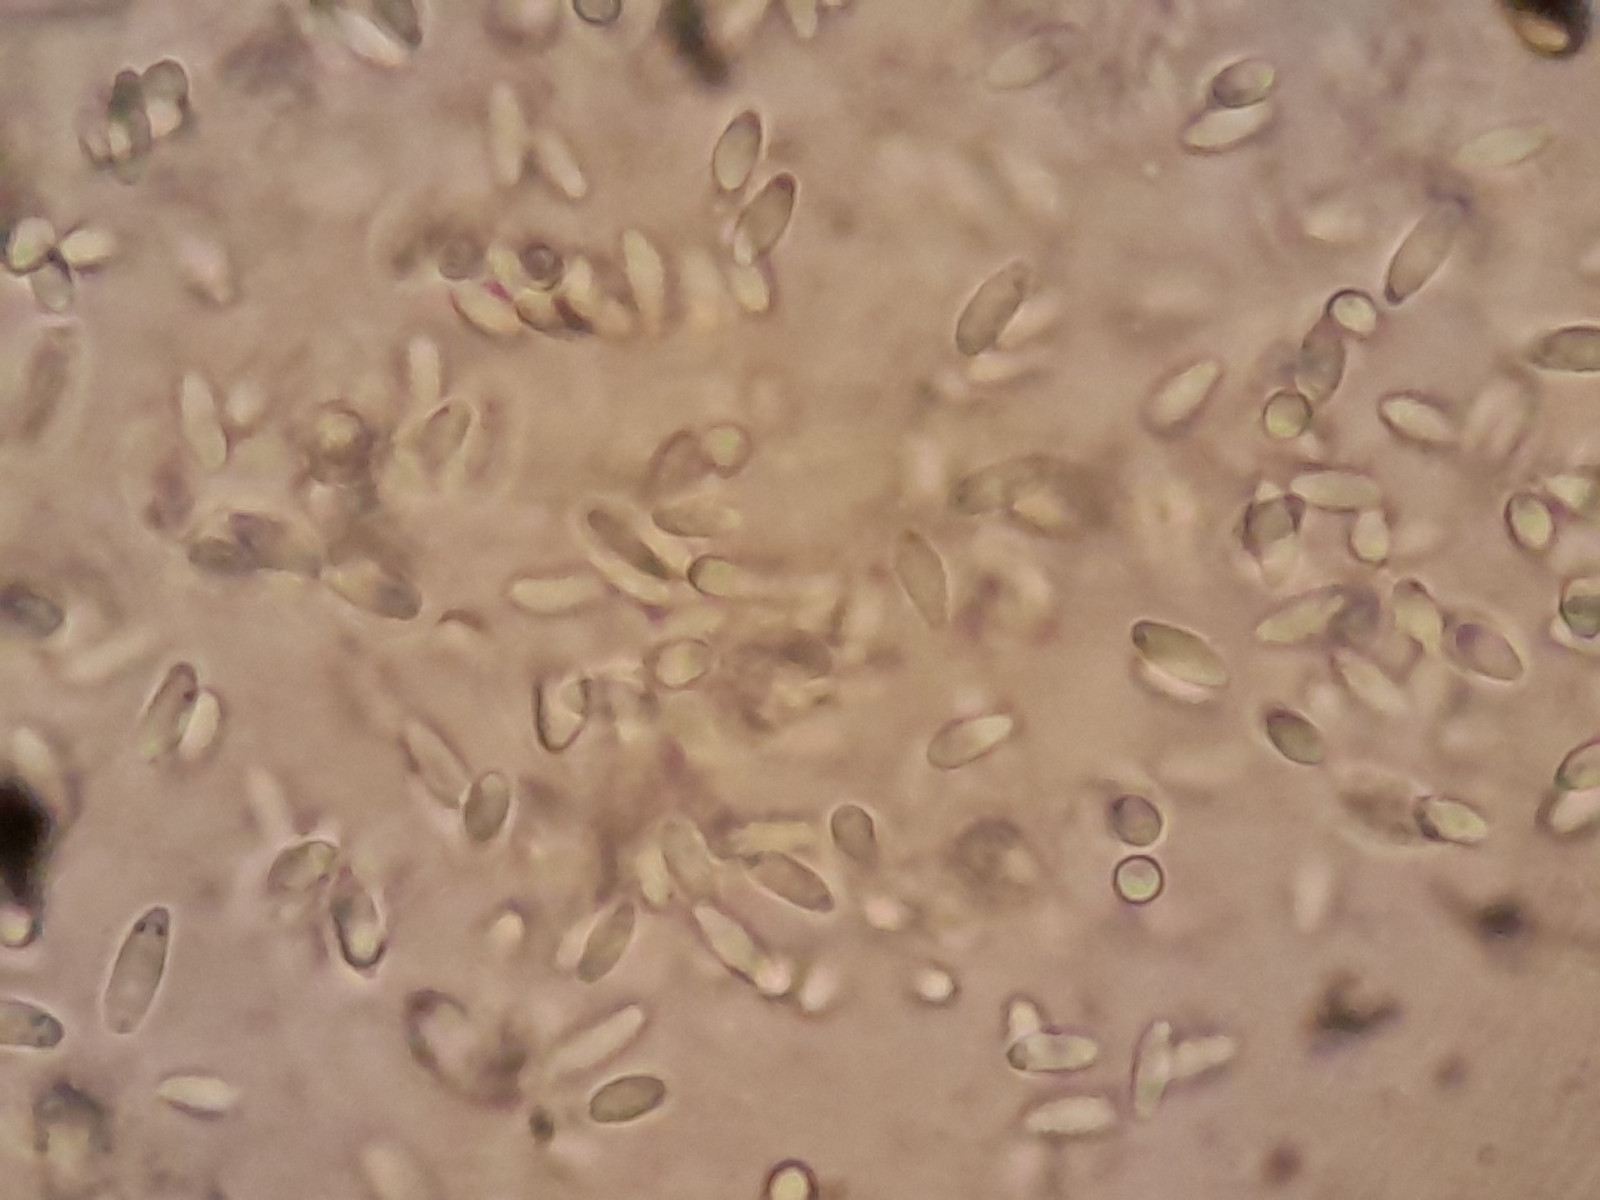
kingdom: Fungi
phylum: Ascomycota
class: Dothideomycetes
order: Pleosporales
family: Didymellaceae
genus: Phoma
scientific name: Phoma
